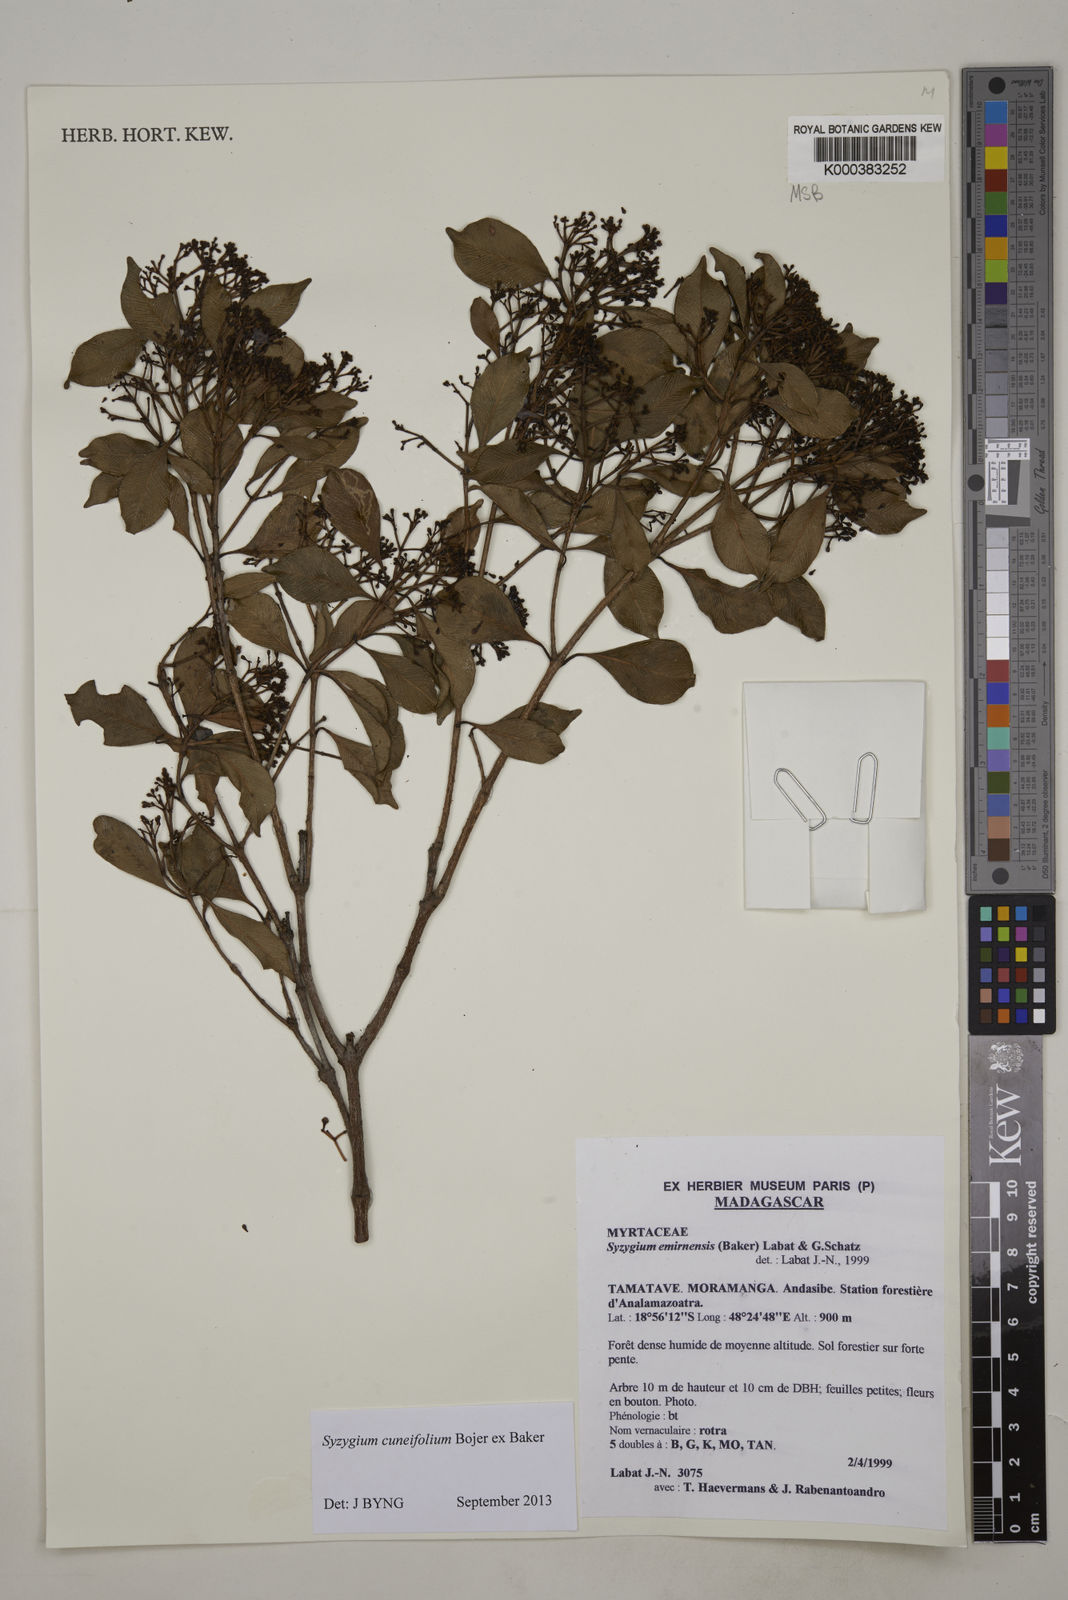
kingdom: Plantae
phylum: Tracheophyta
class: Magnoliopsida
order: Myrtales
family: Myrtaceae
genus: Syzygium
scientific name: Syzygium emirnense
